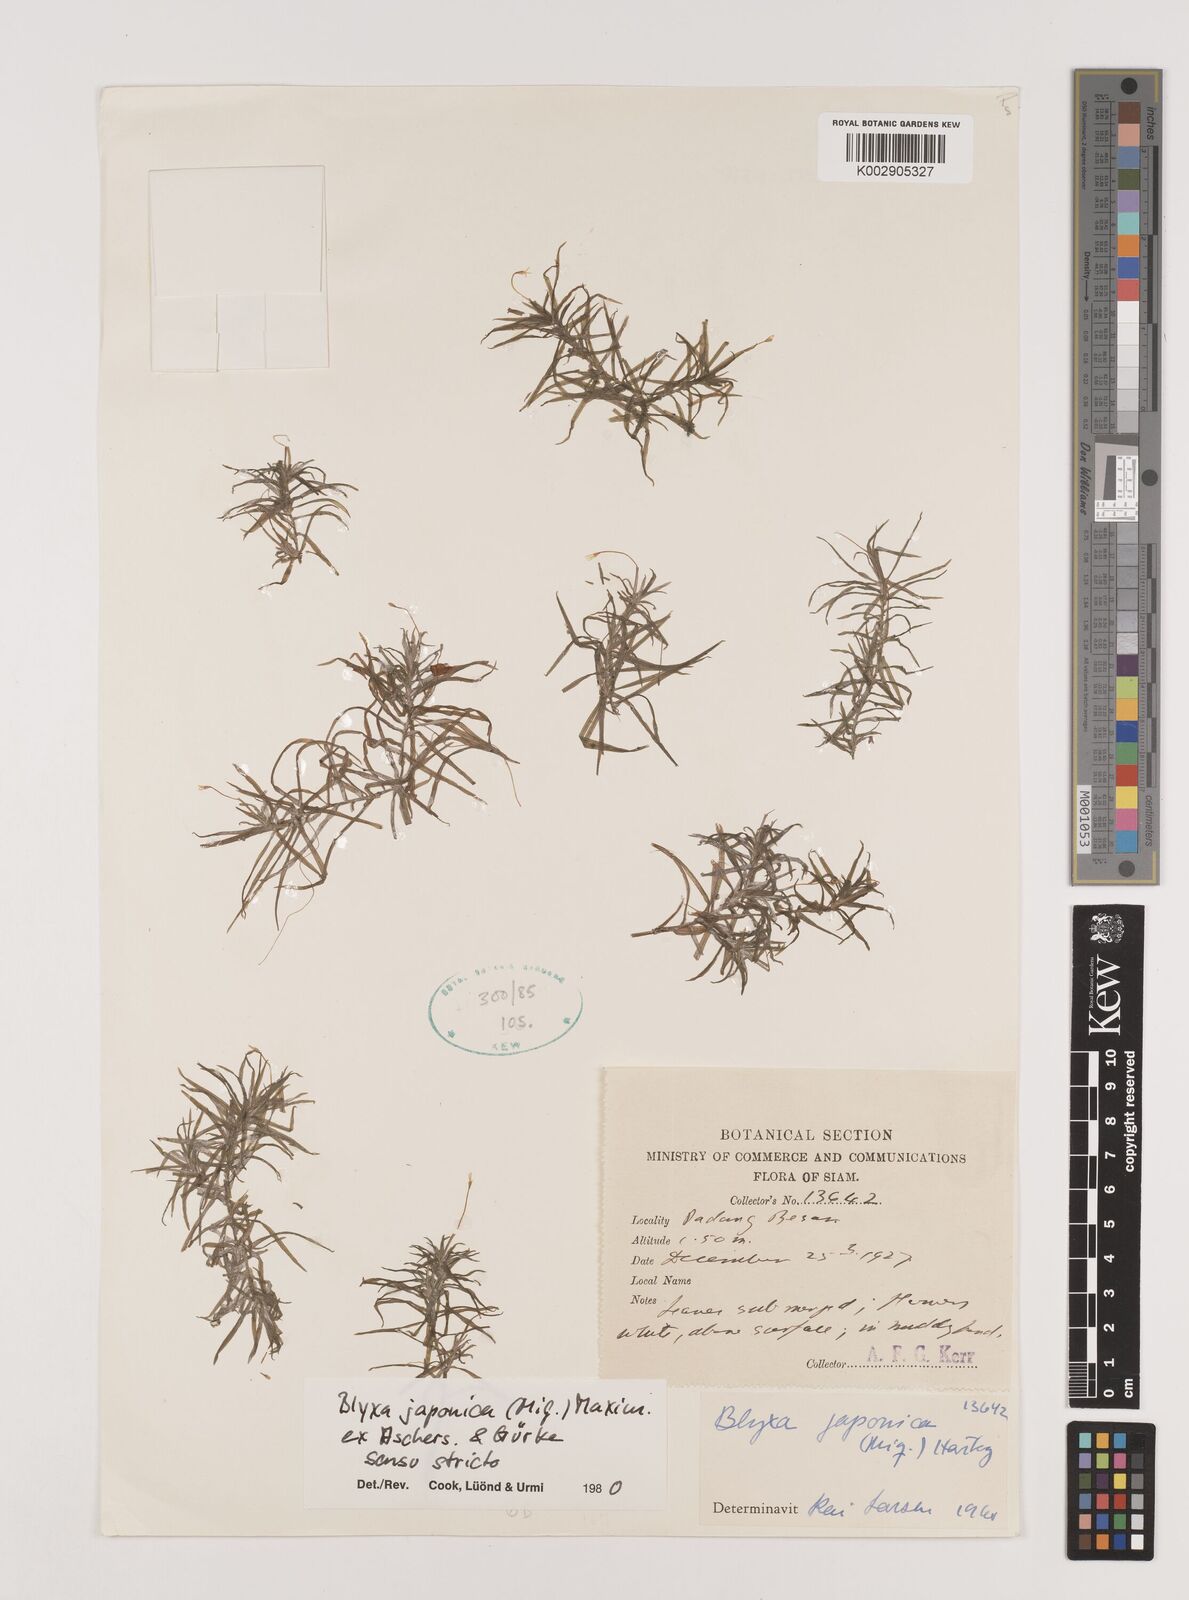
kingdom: Plantae
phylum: Tracheophyta
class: Liliopsida
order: Alismatales
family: Hydrocharitaceae
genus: Blyxa
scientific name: Blyxa japonica
